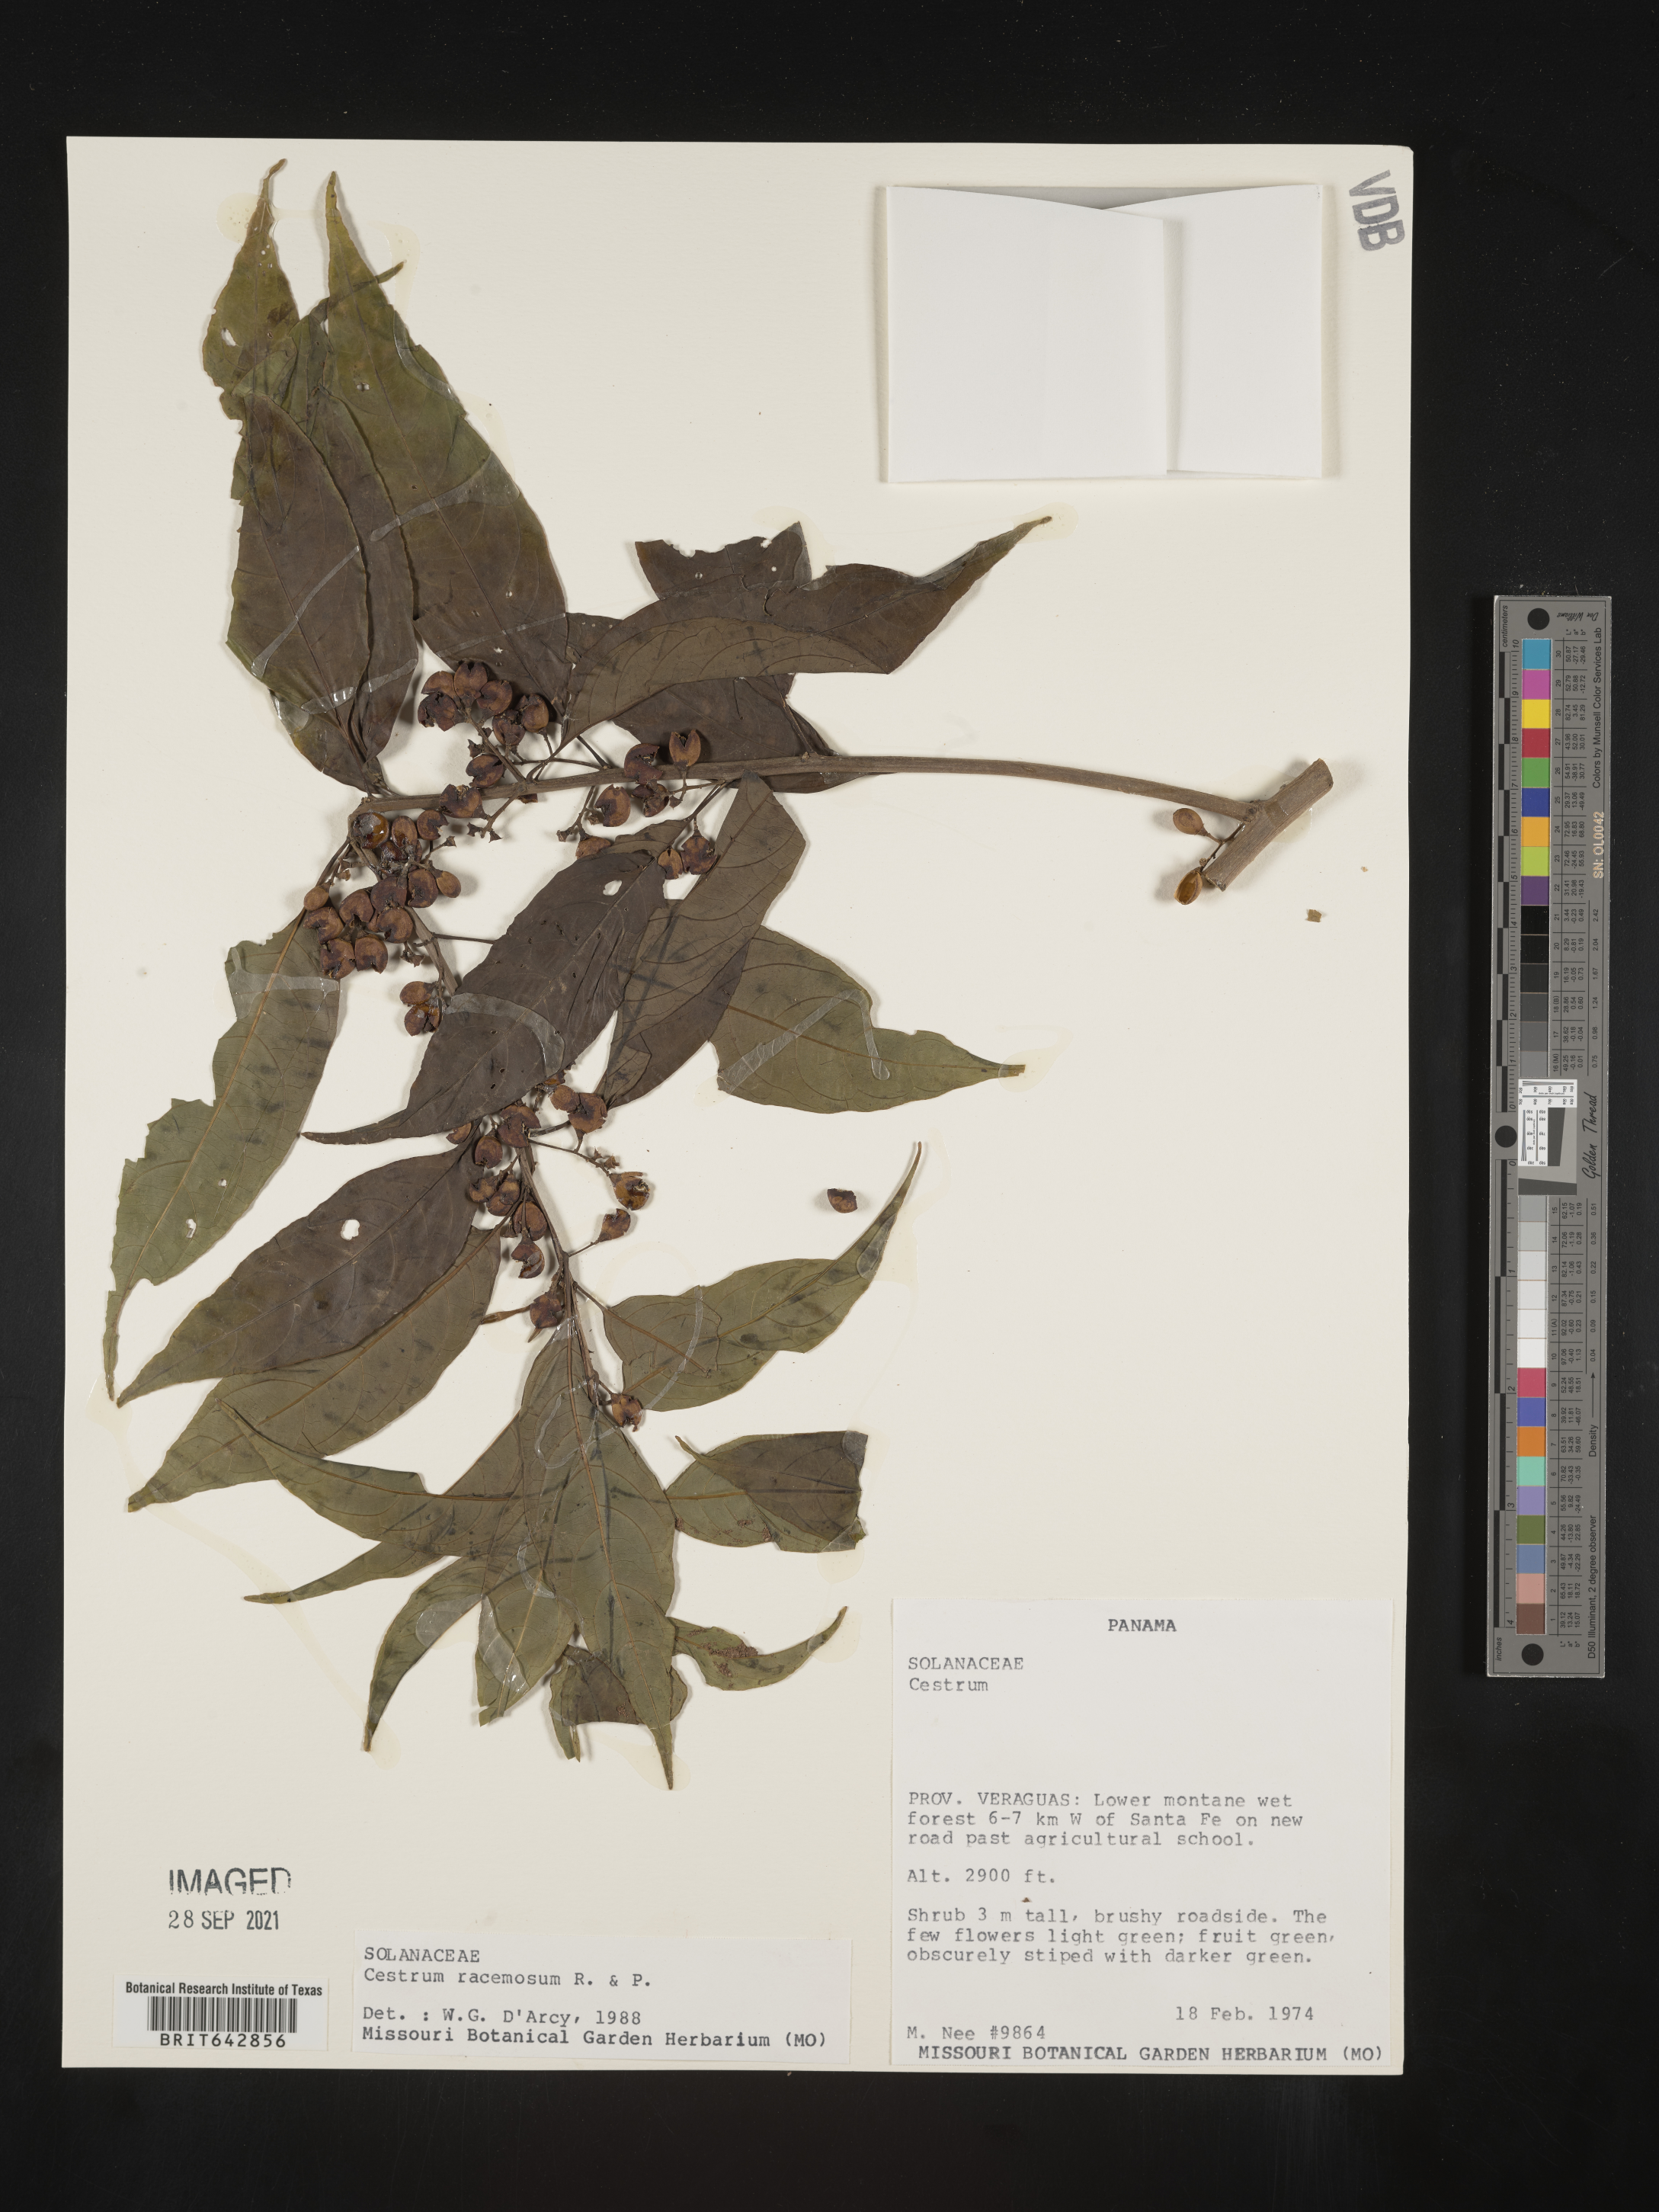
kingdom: Plantae
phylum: Tracheophyta
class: Magnoliopsida
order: Solanales
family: Solanaceae
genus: Cestrum
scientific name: Cestrum
